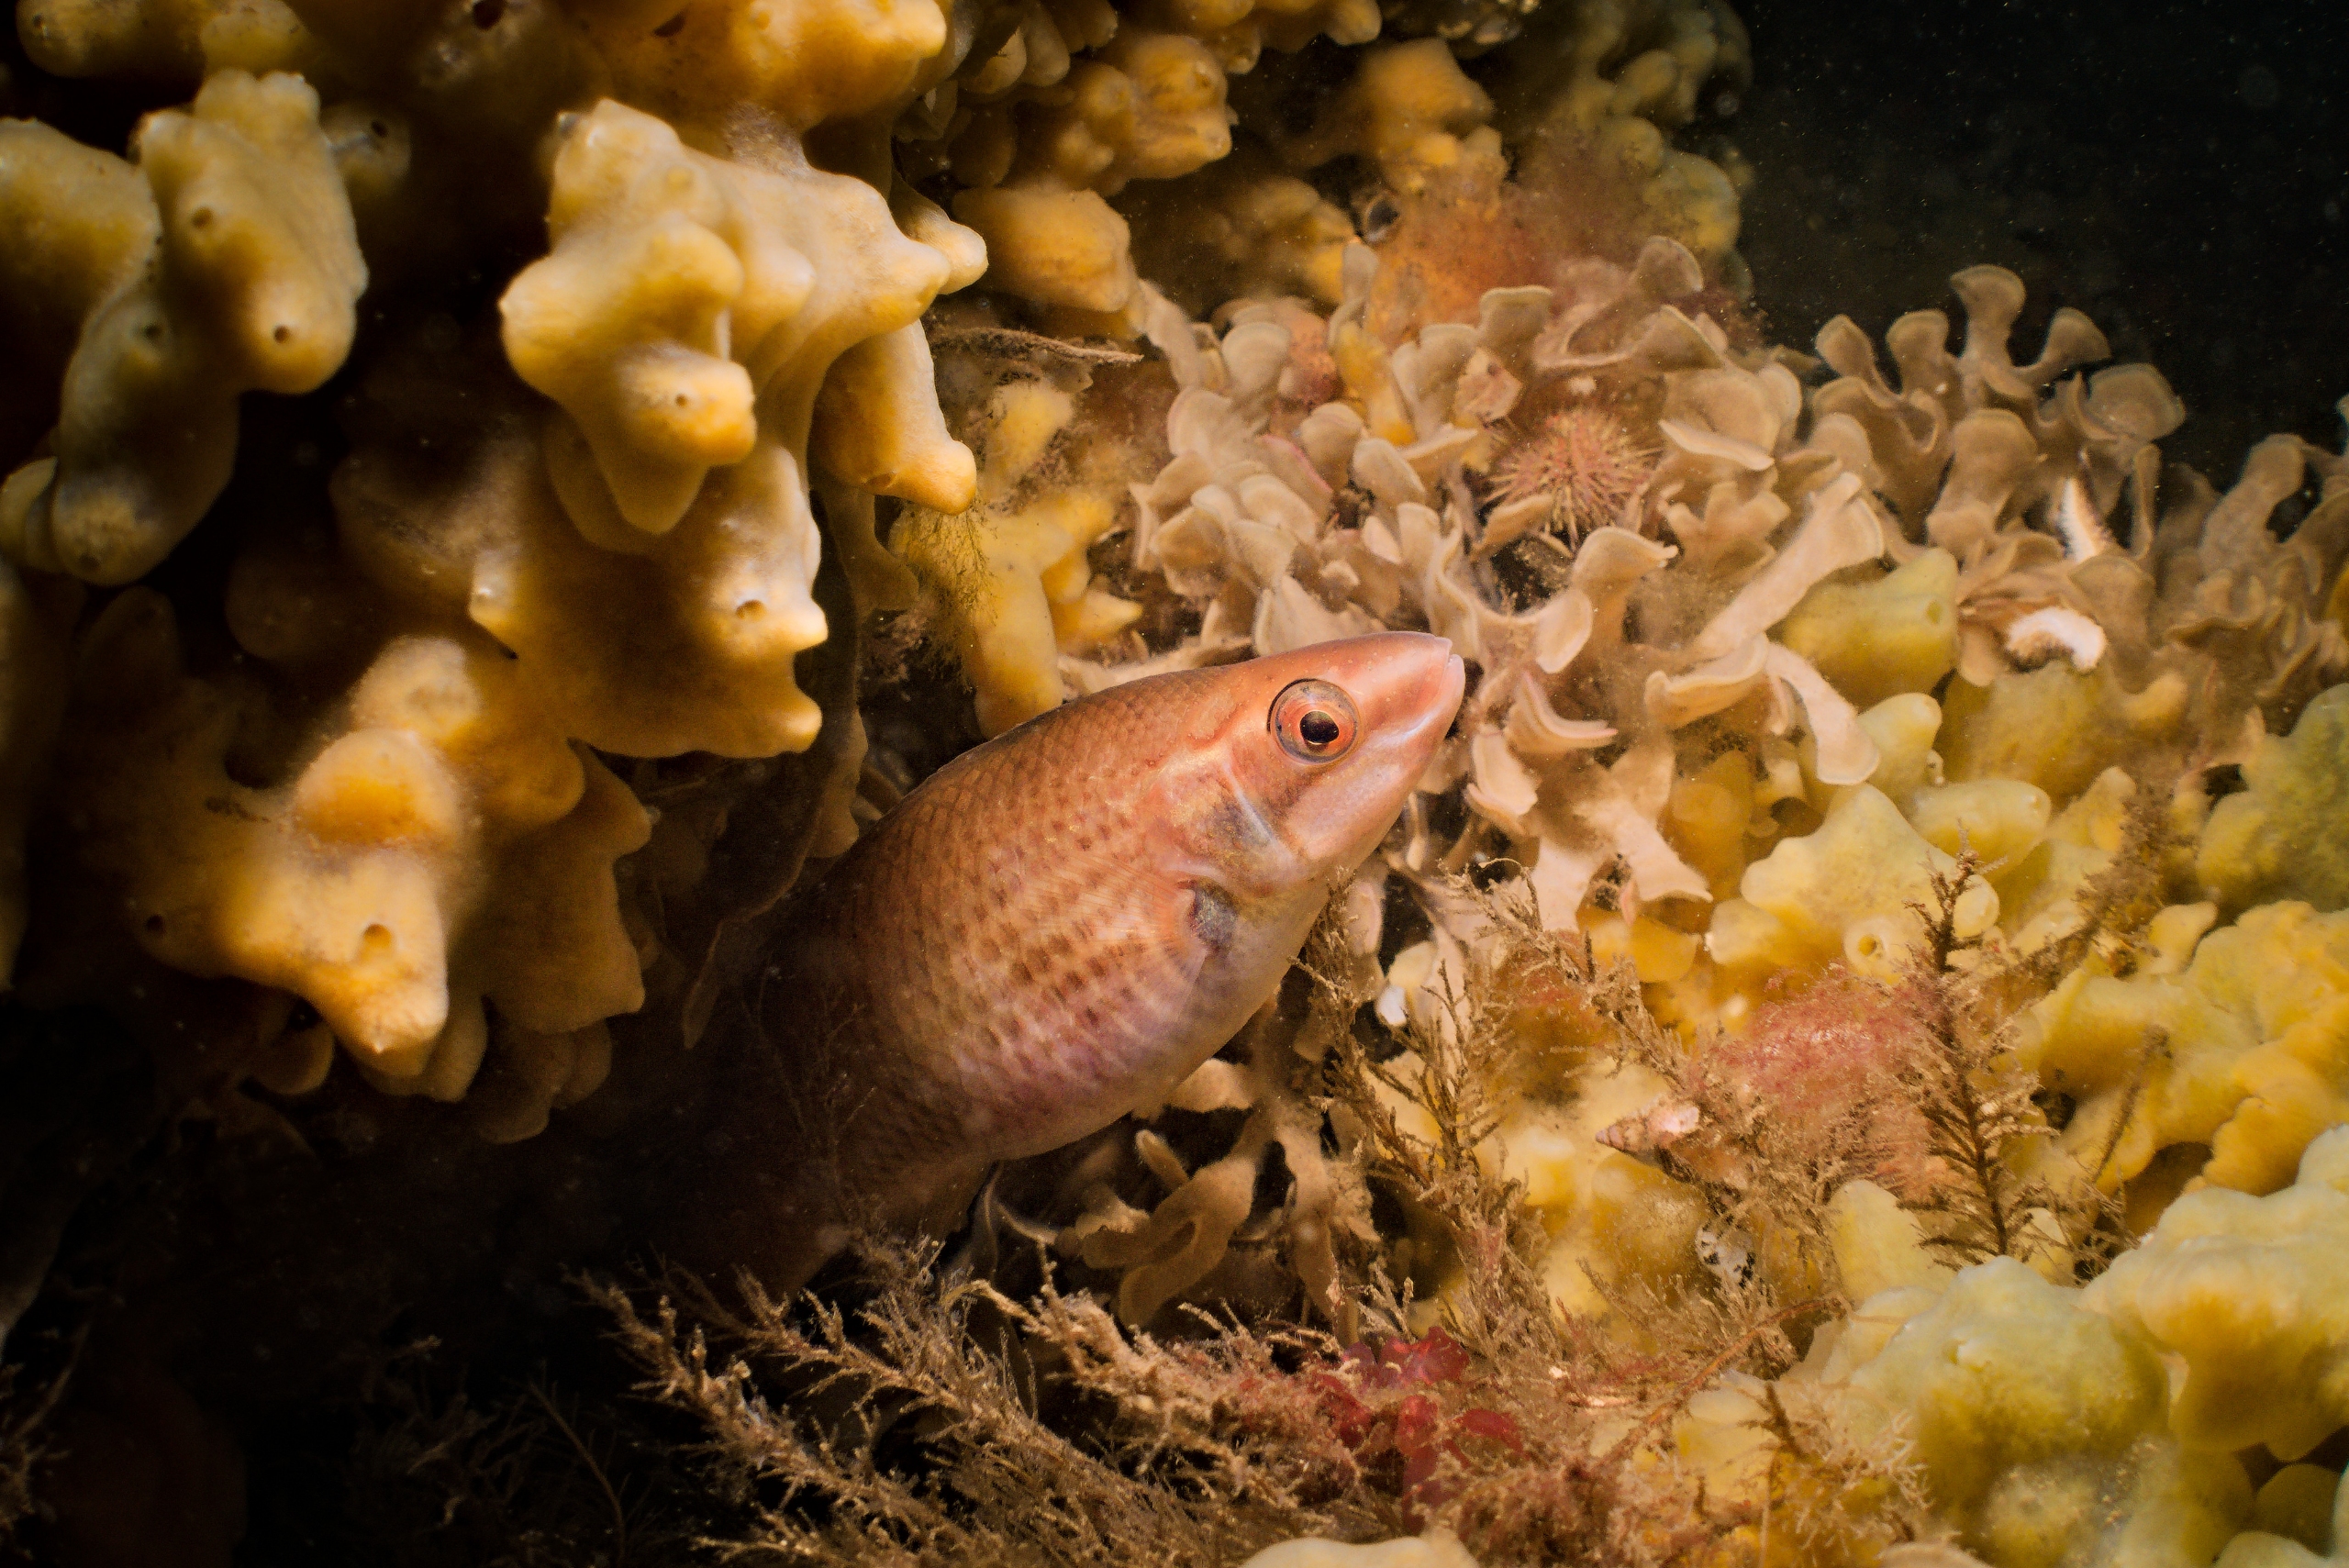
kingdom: Animalia
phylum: Chordata
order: Perciformes
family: Labridae
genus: Ctenolabrus
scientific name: Ctenolabrus rupestris
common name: Havkarusse
